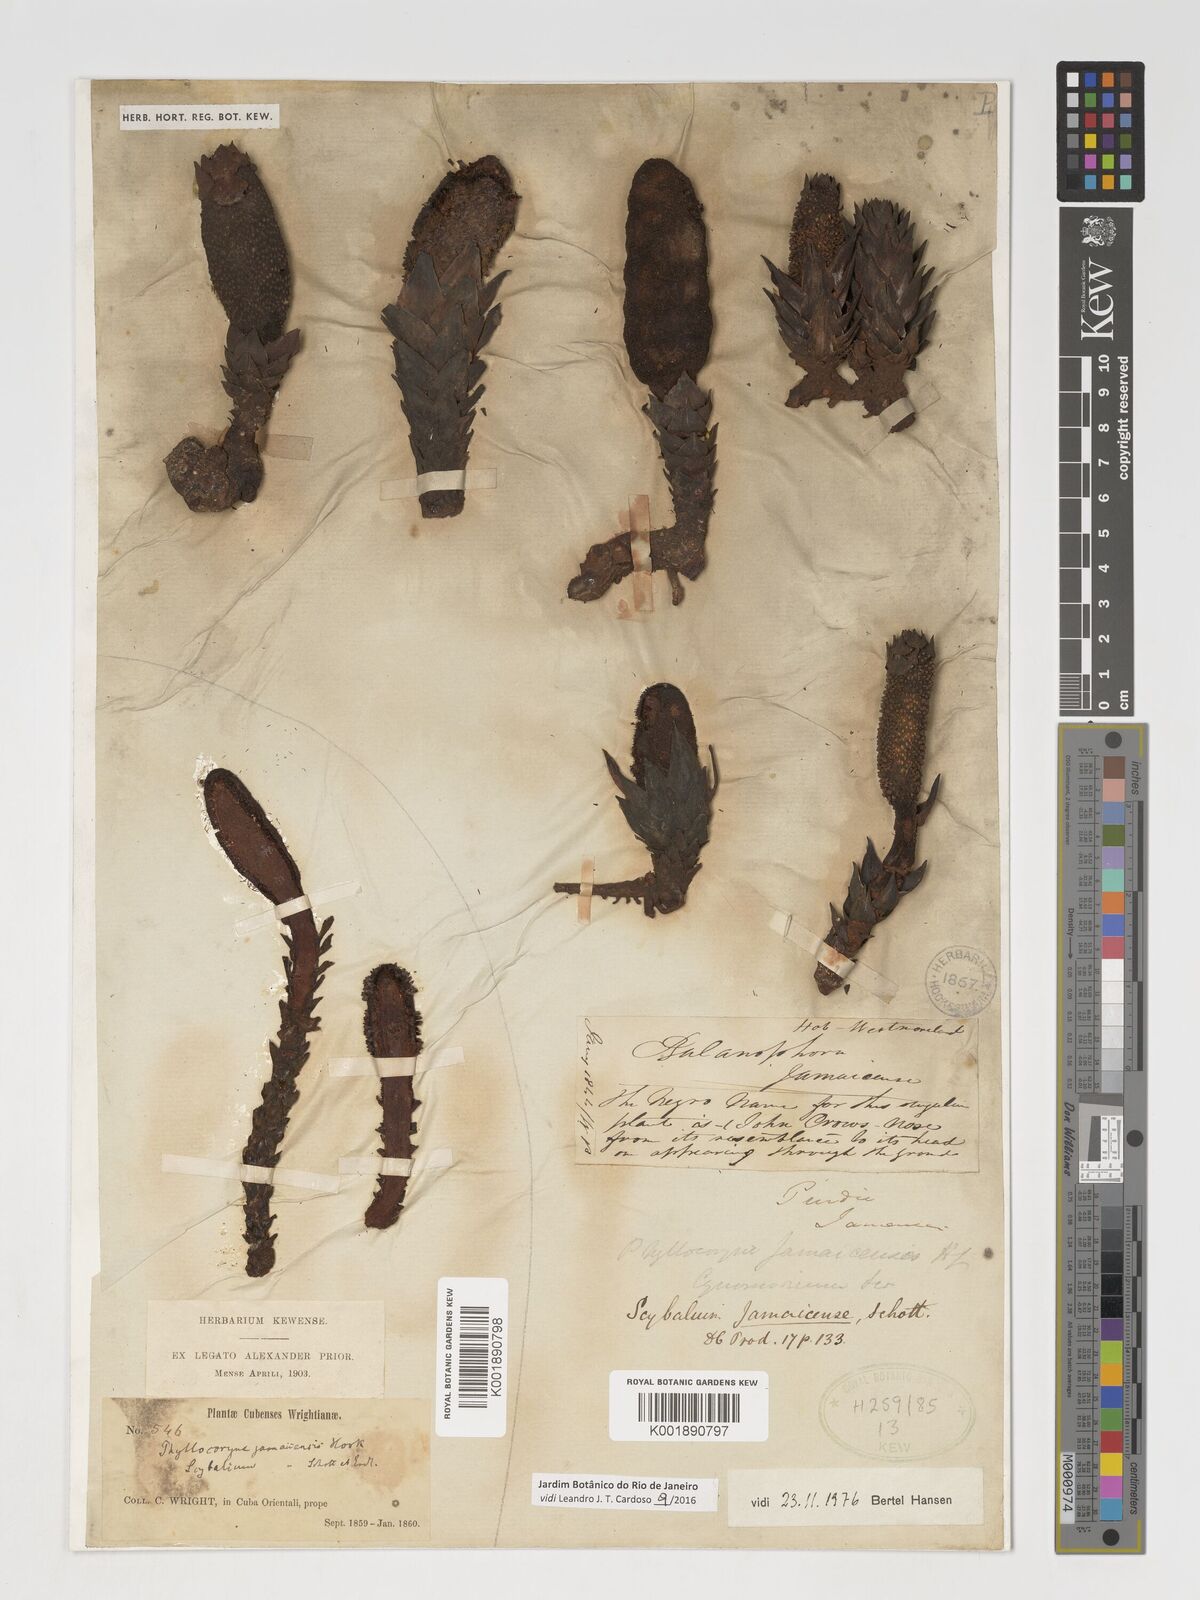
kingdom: Plantae
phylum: Tracheophyta
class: Magnoliopsida
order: Santalales
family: Balanophoraceae
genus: Scybalium
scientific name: Scybalium jamaicense
